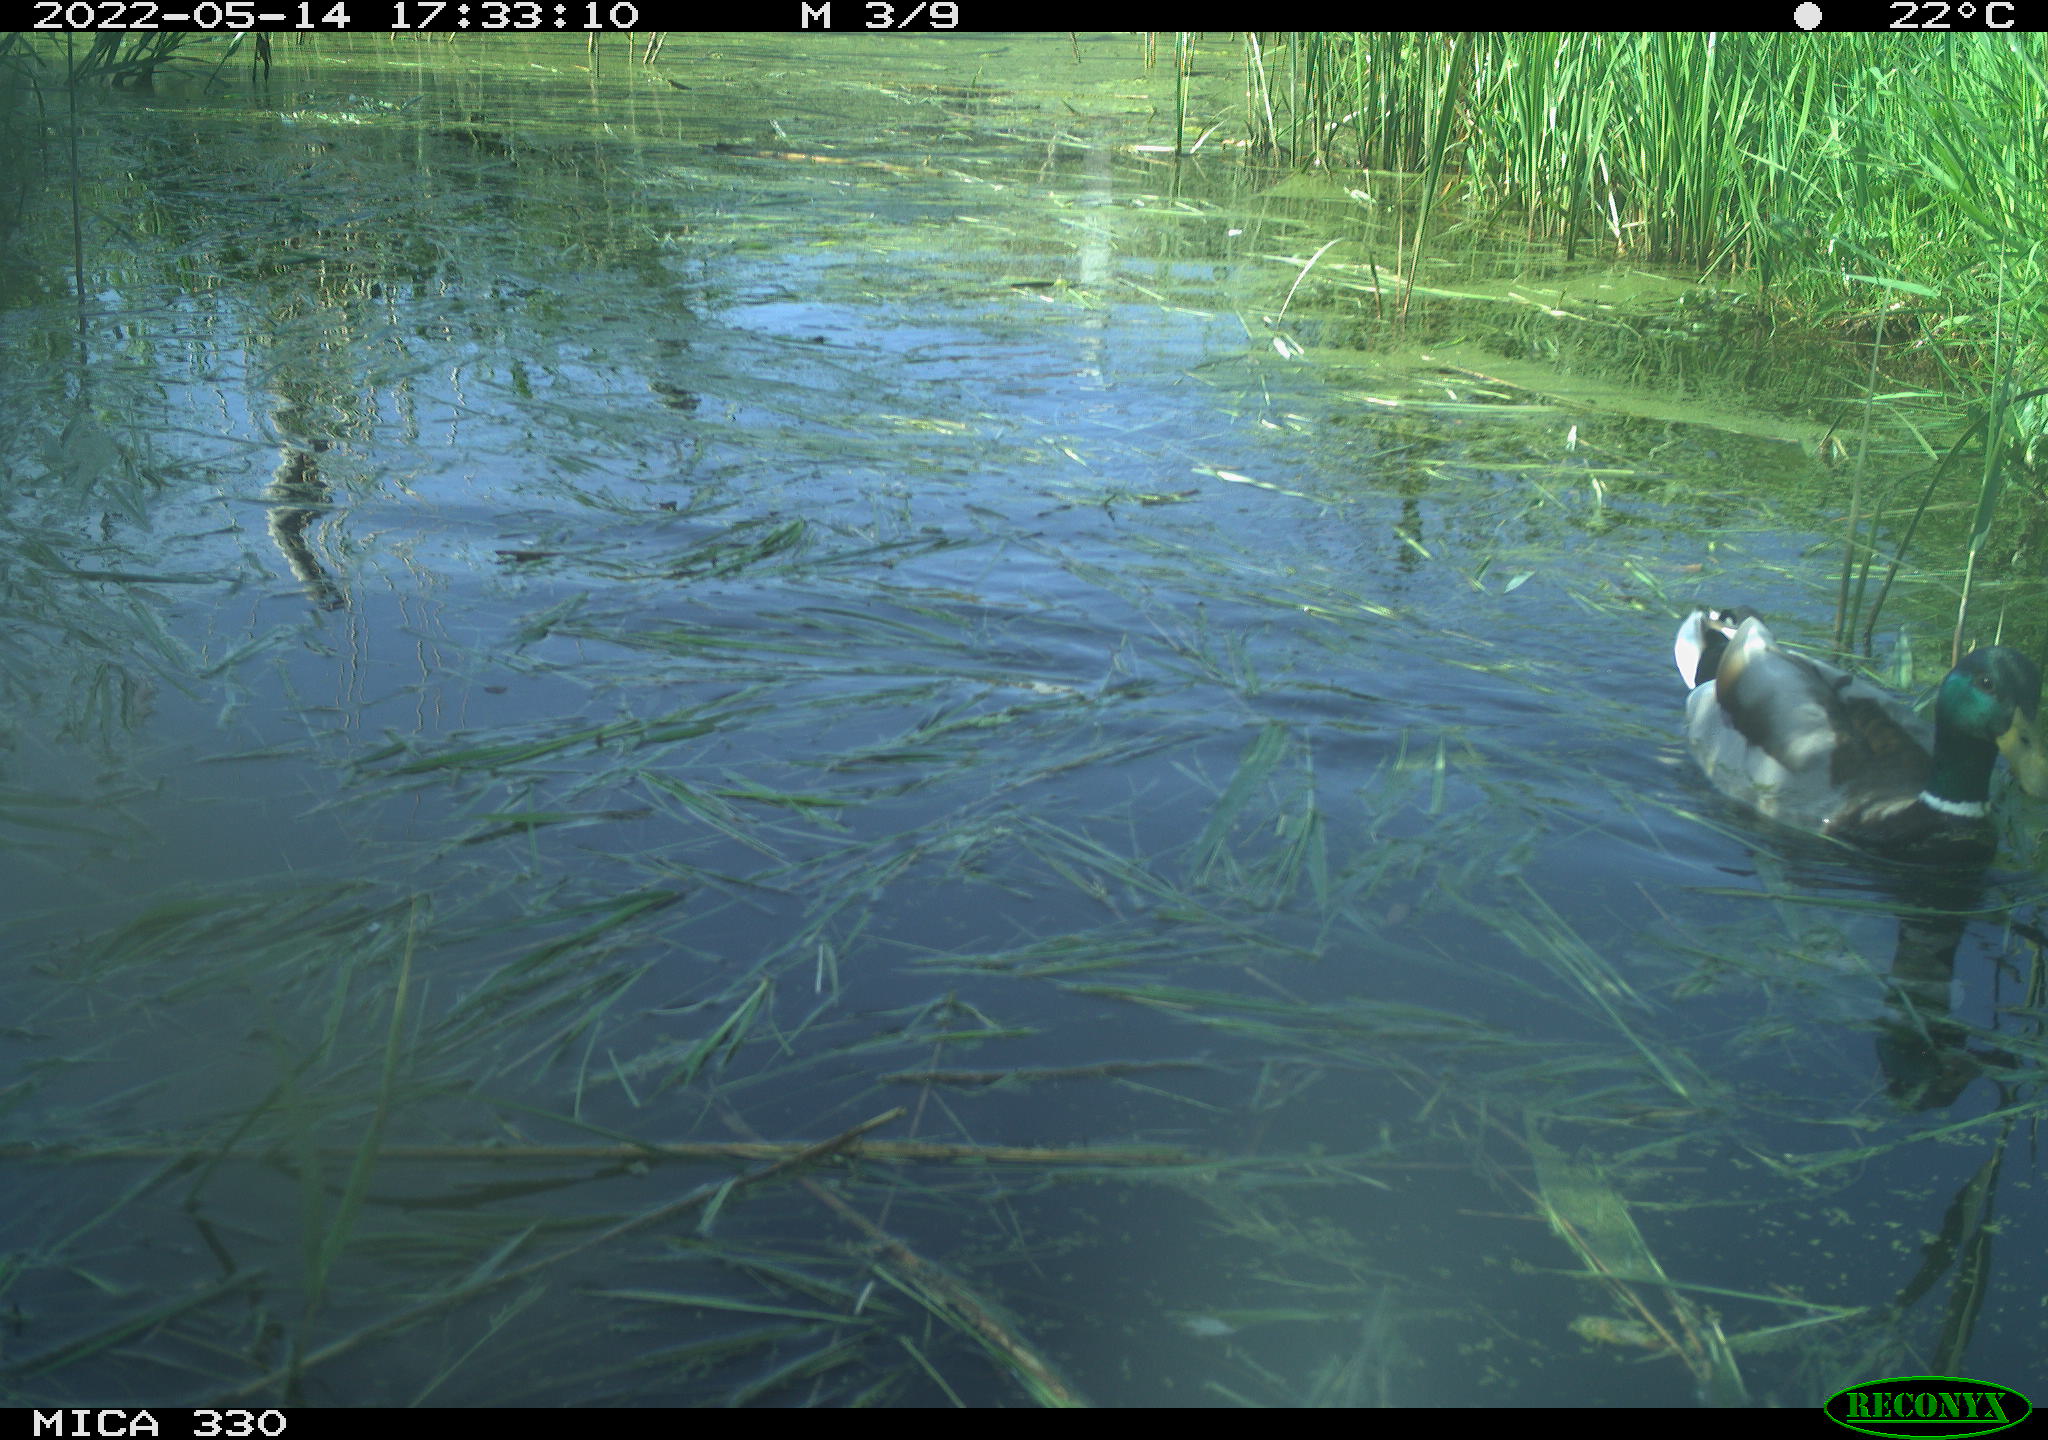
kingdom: Animalia
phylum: Chordata
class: Aves
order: Anseriformes
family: Anatidae
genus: Anas
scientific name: Anas platyrhynchos
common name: Mallard
